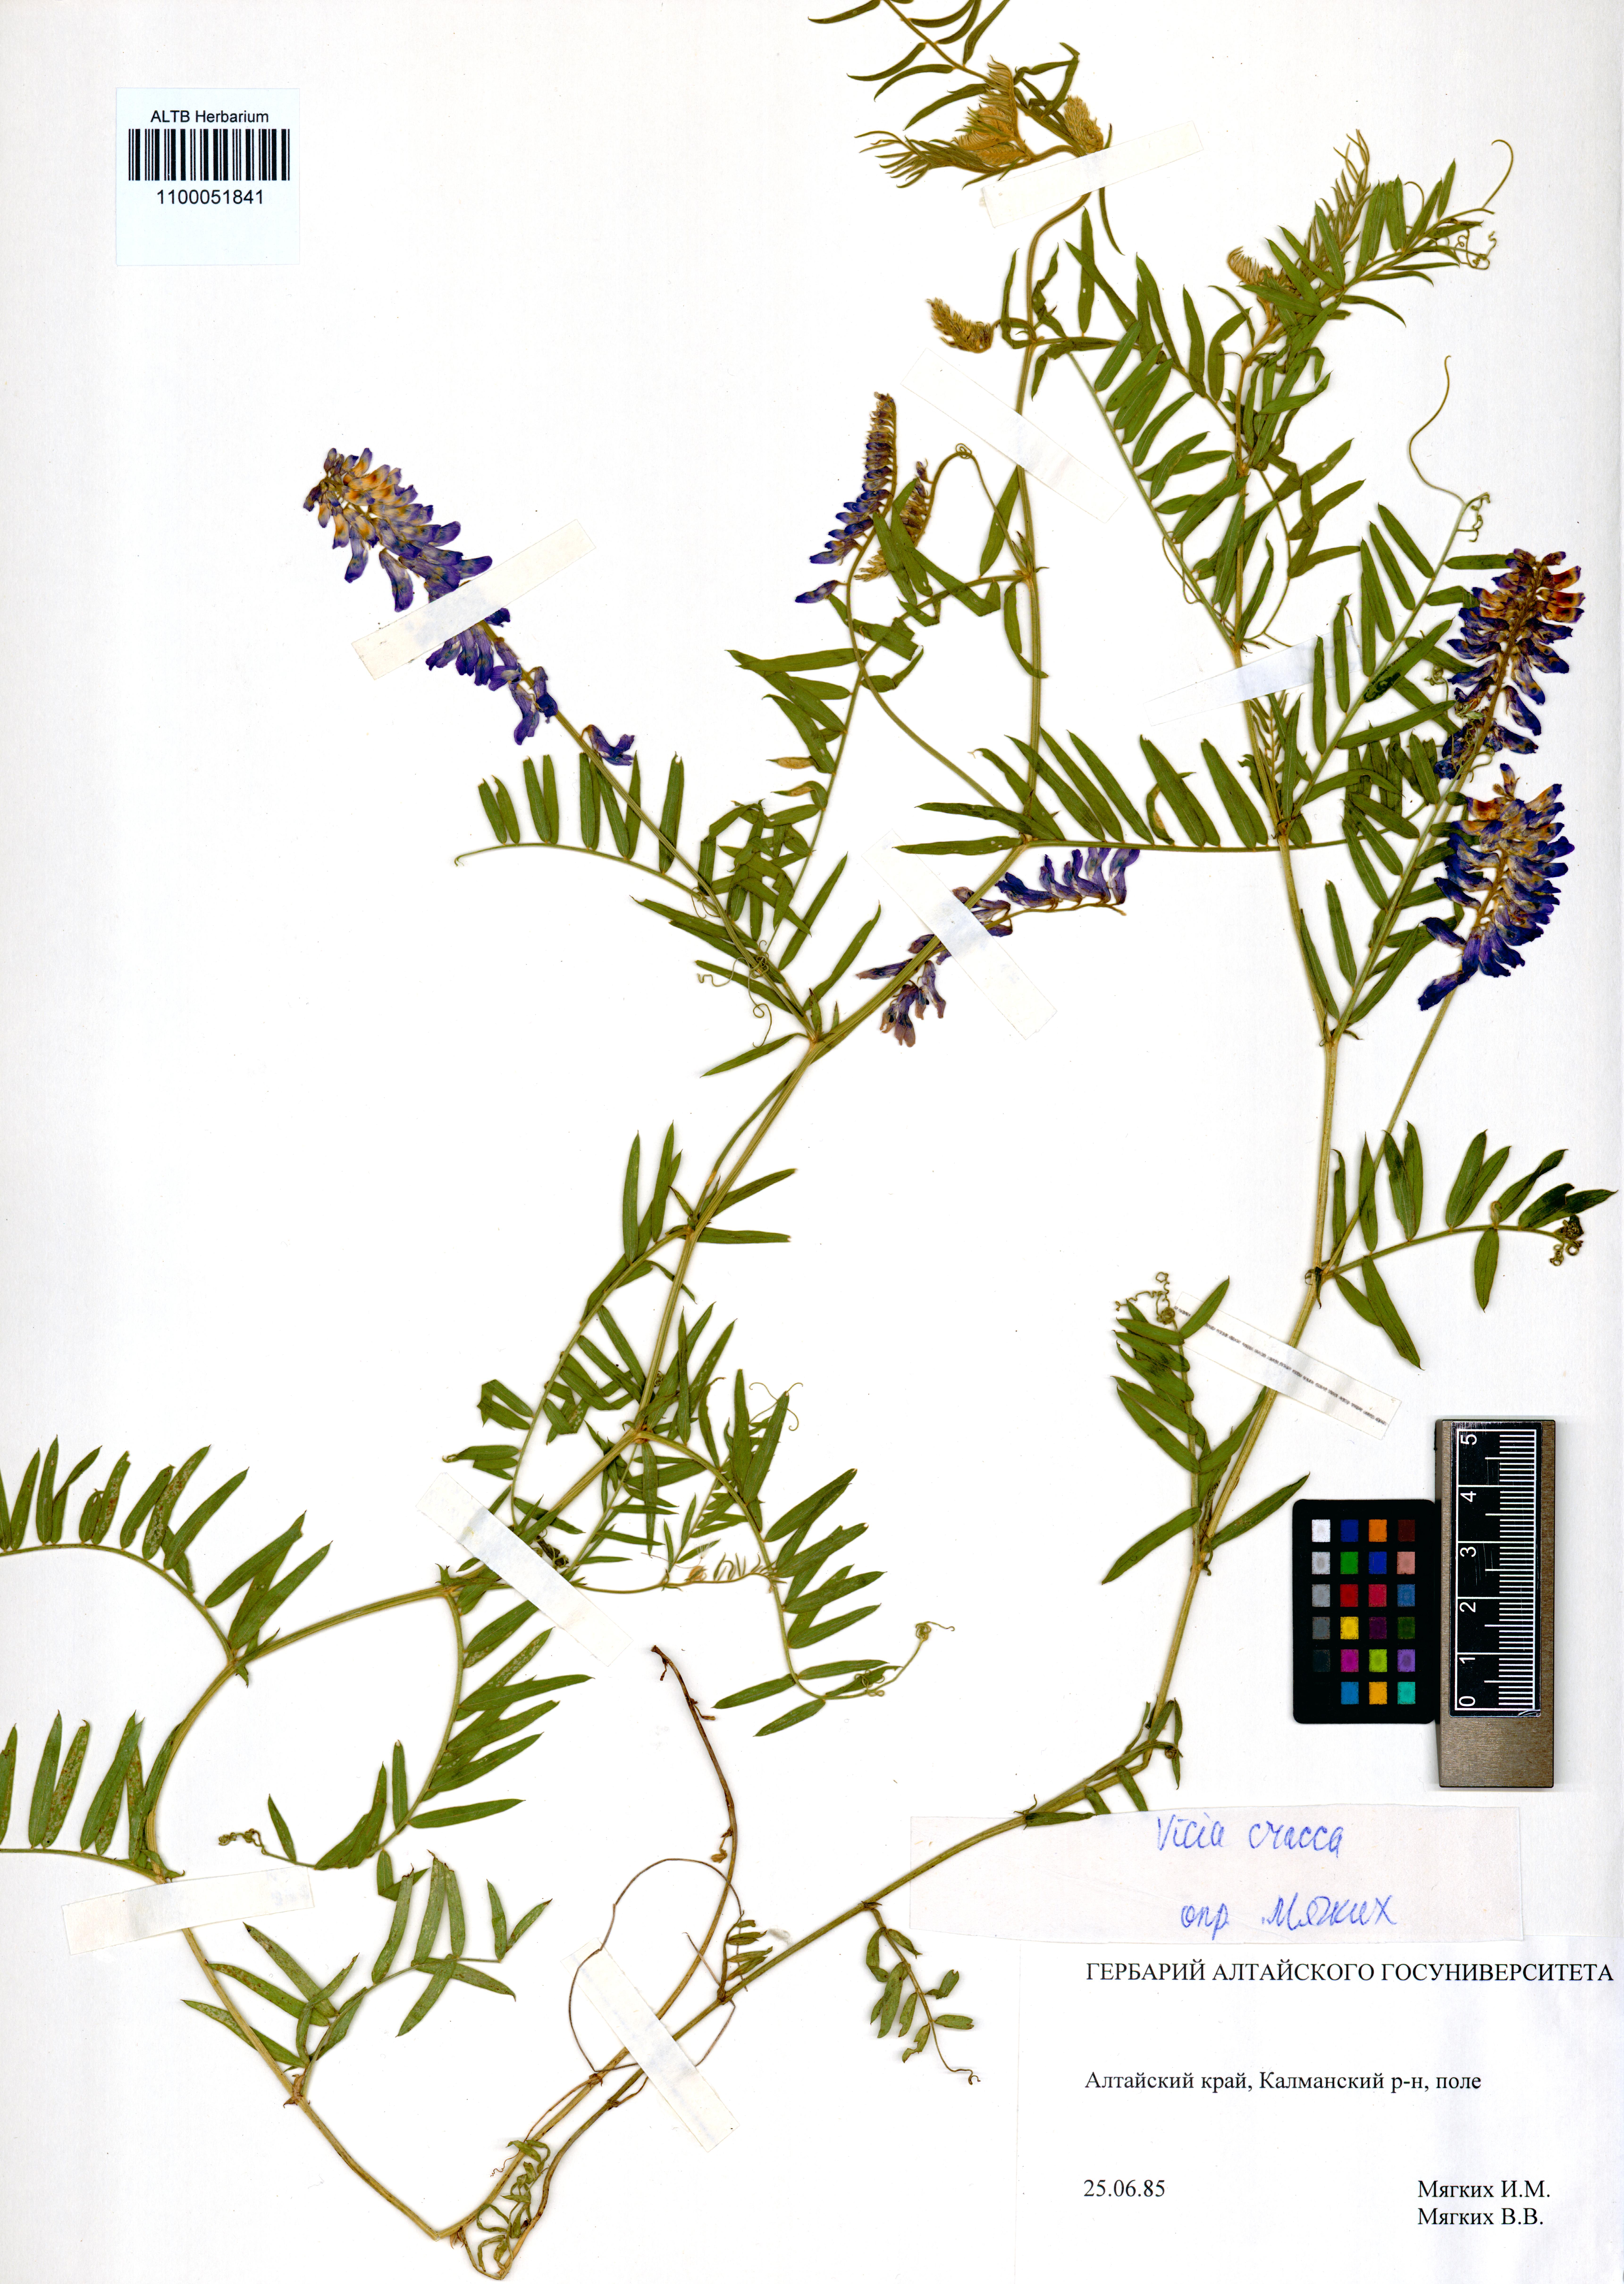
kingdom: Plantae
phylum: Tracheophyta
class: Magnoliopsida
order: Fabales
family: Fabaceae
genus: Vicia
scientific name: Vicia cracca
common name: Bird vetch
